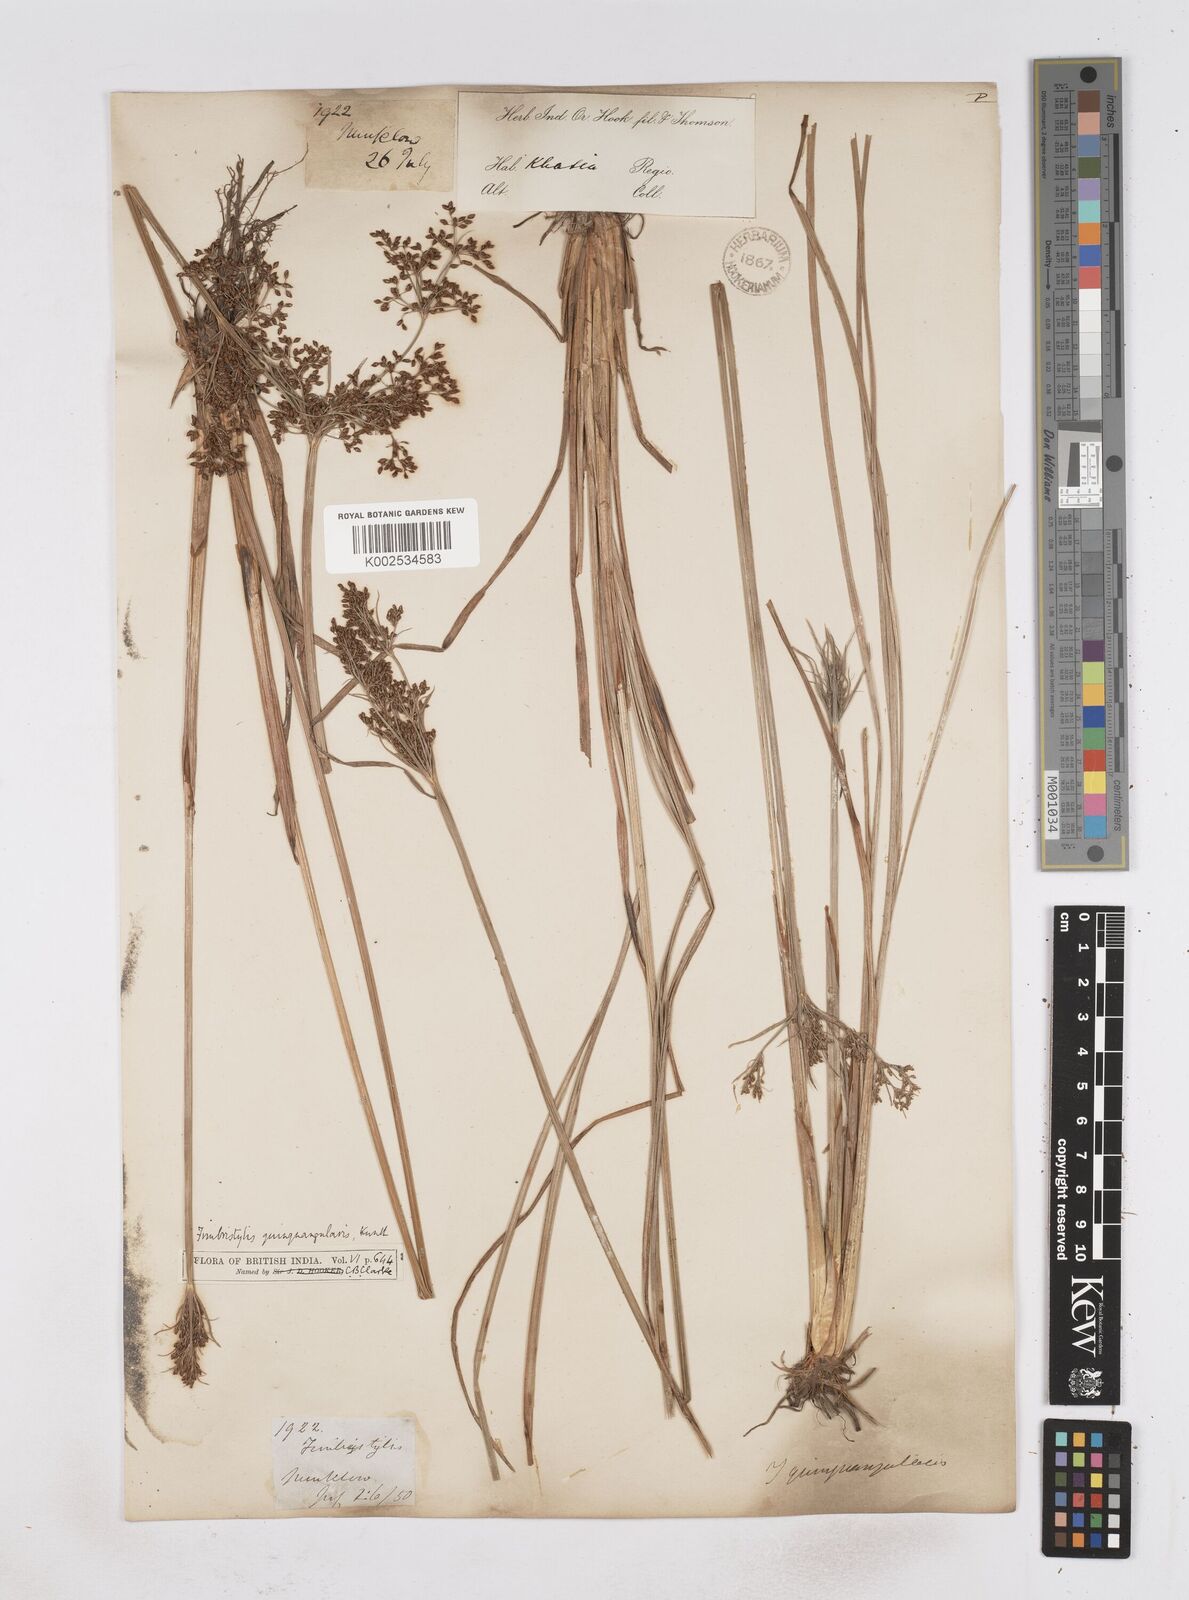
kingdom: Plantae
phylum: Tracheophyta
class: Liliopsida
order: Poales
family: Cyperaceae
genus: Fimbristylis
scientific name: Fimbristylis aphylla
